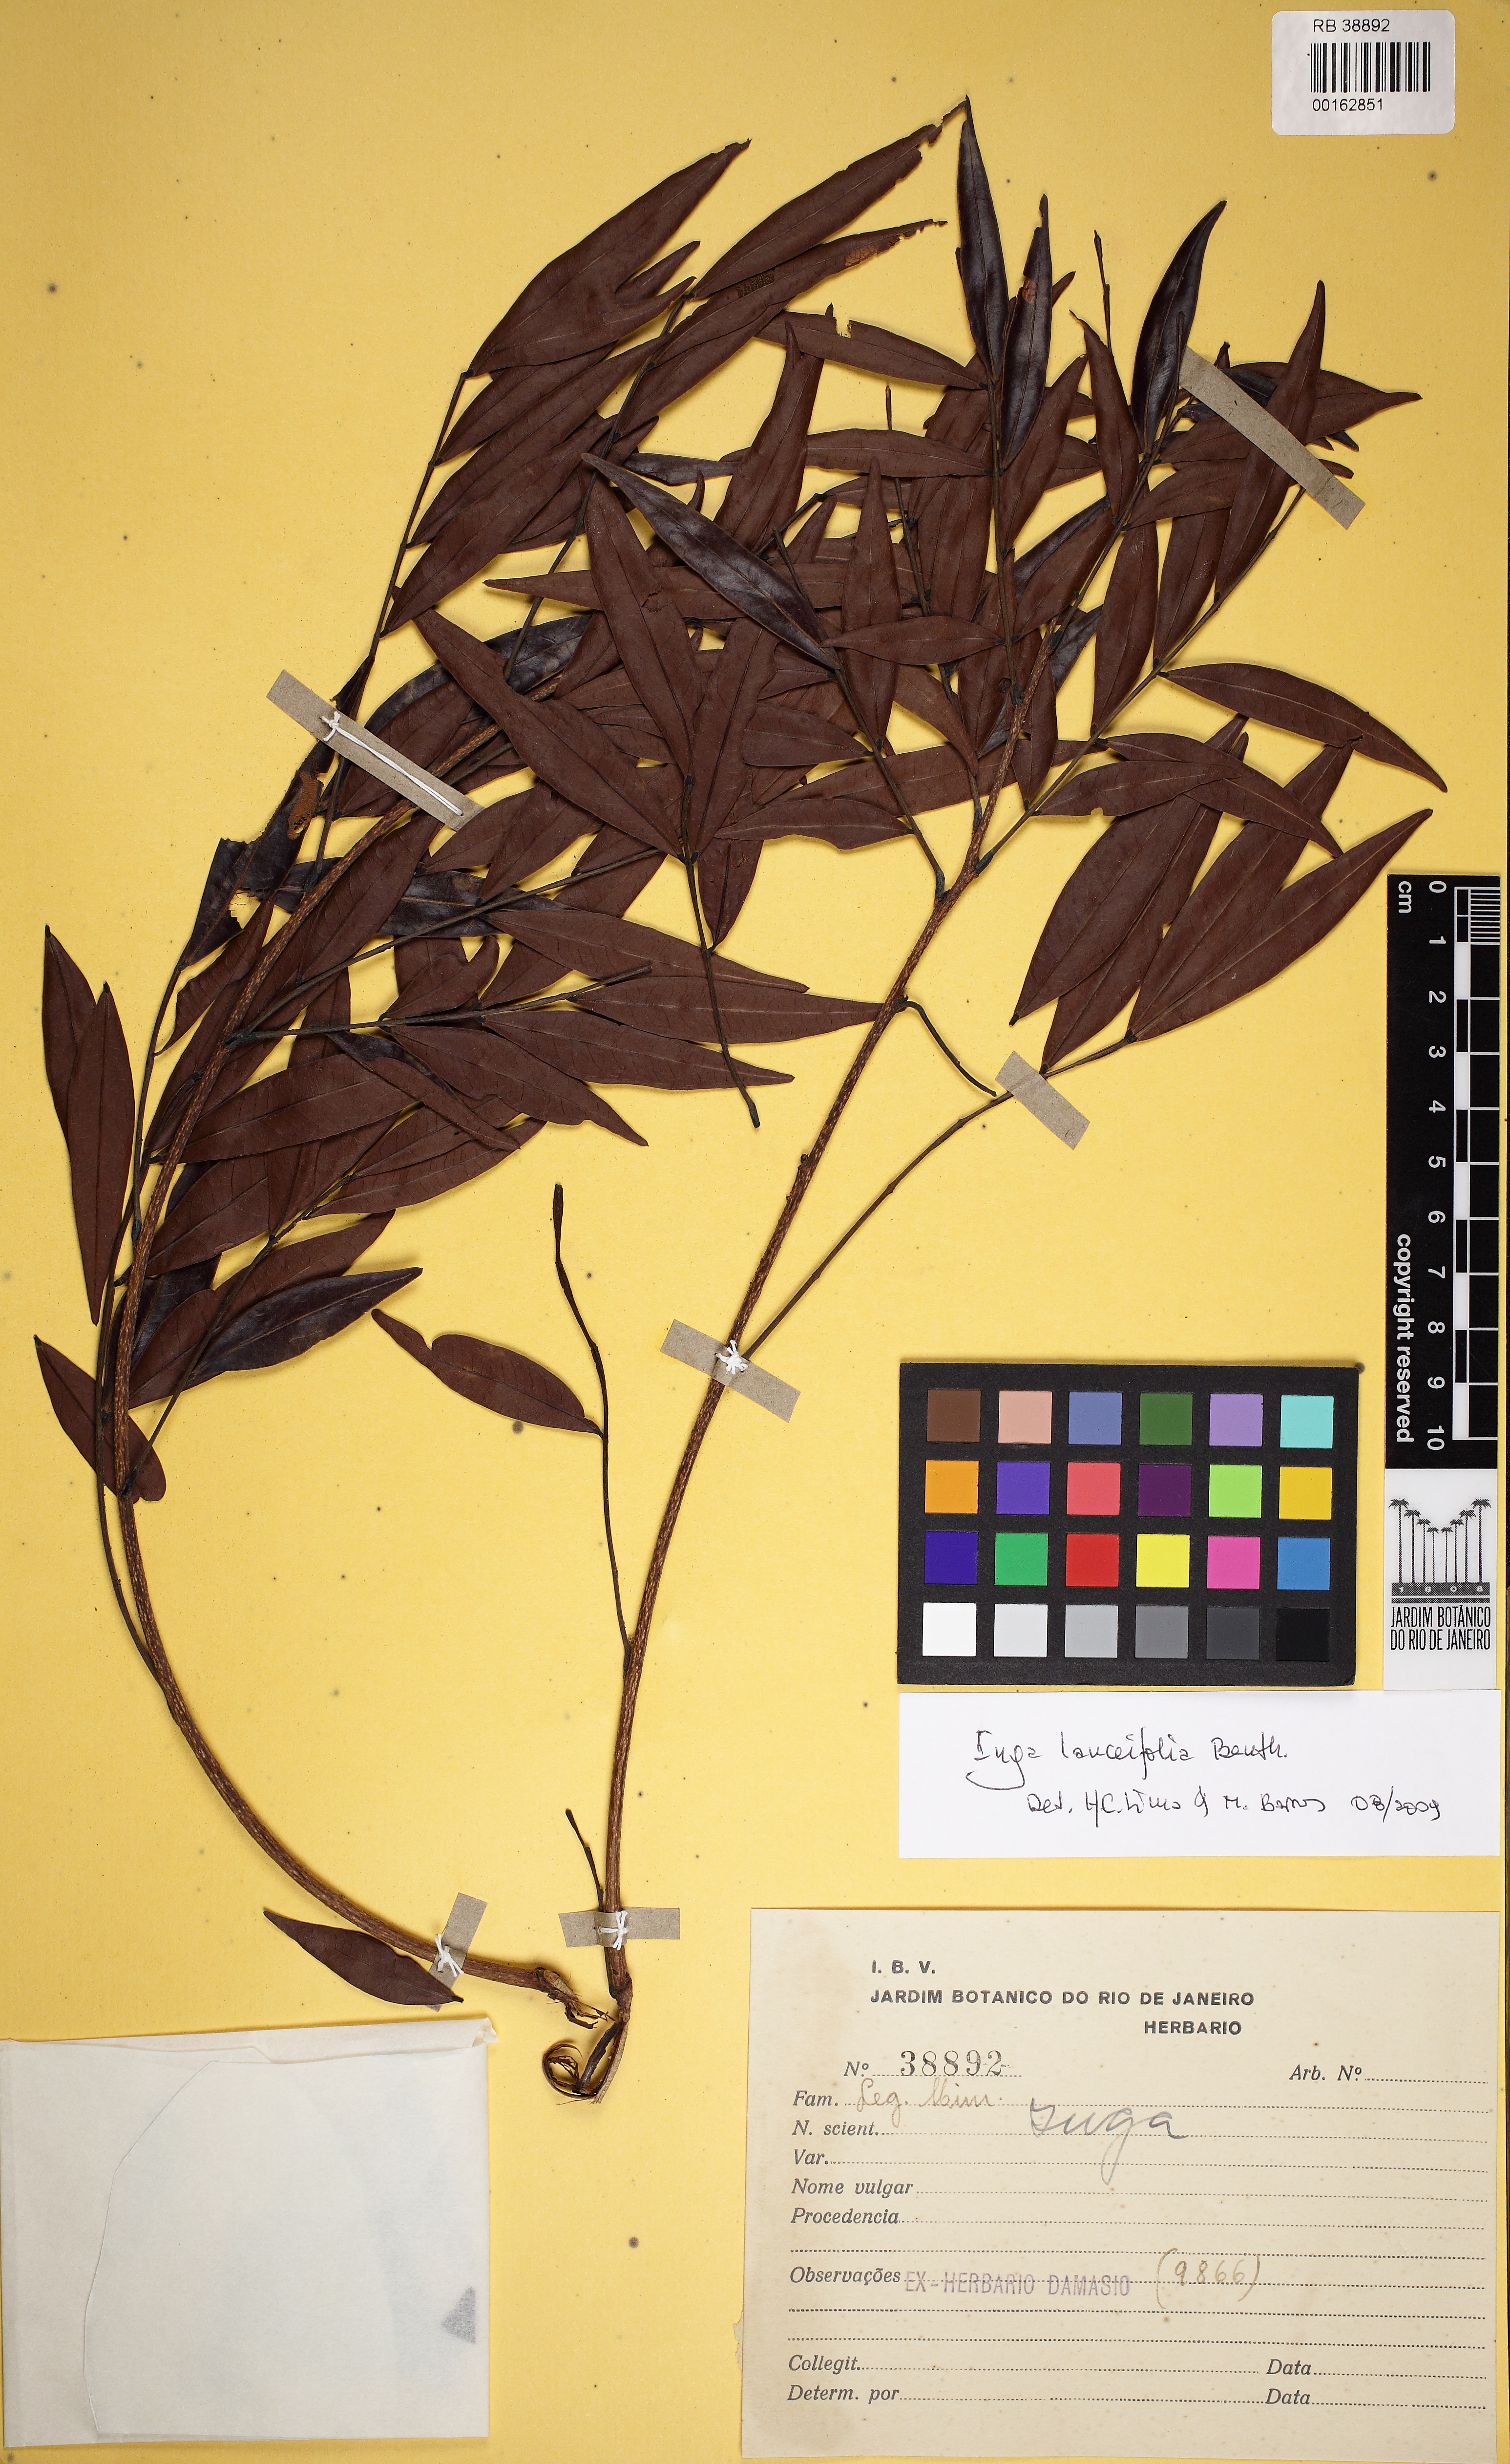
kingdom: Plantae
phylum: Tracheophyta
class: Magnoliopsida
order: Fabales
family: Fabaceae
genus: Inga
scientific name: Inga lanceifolia
